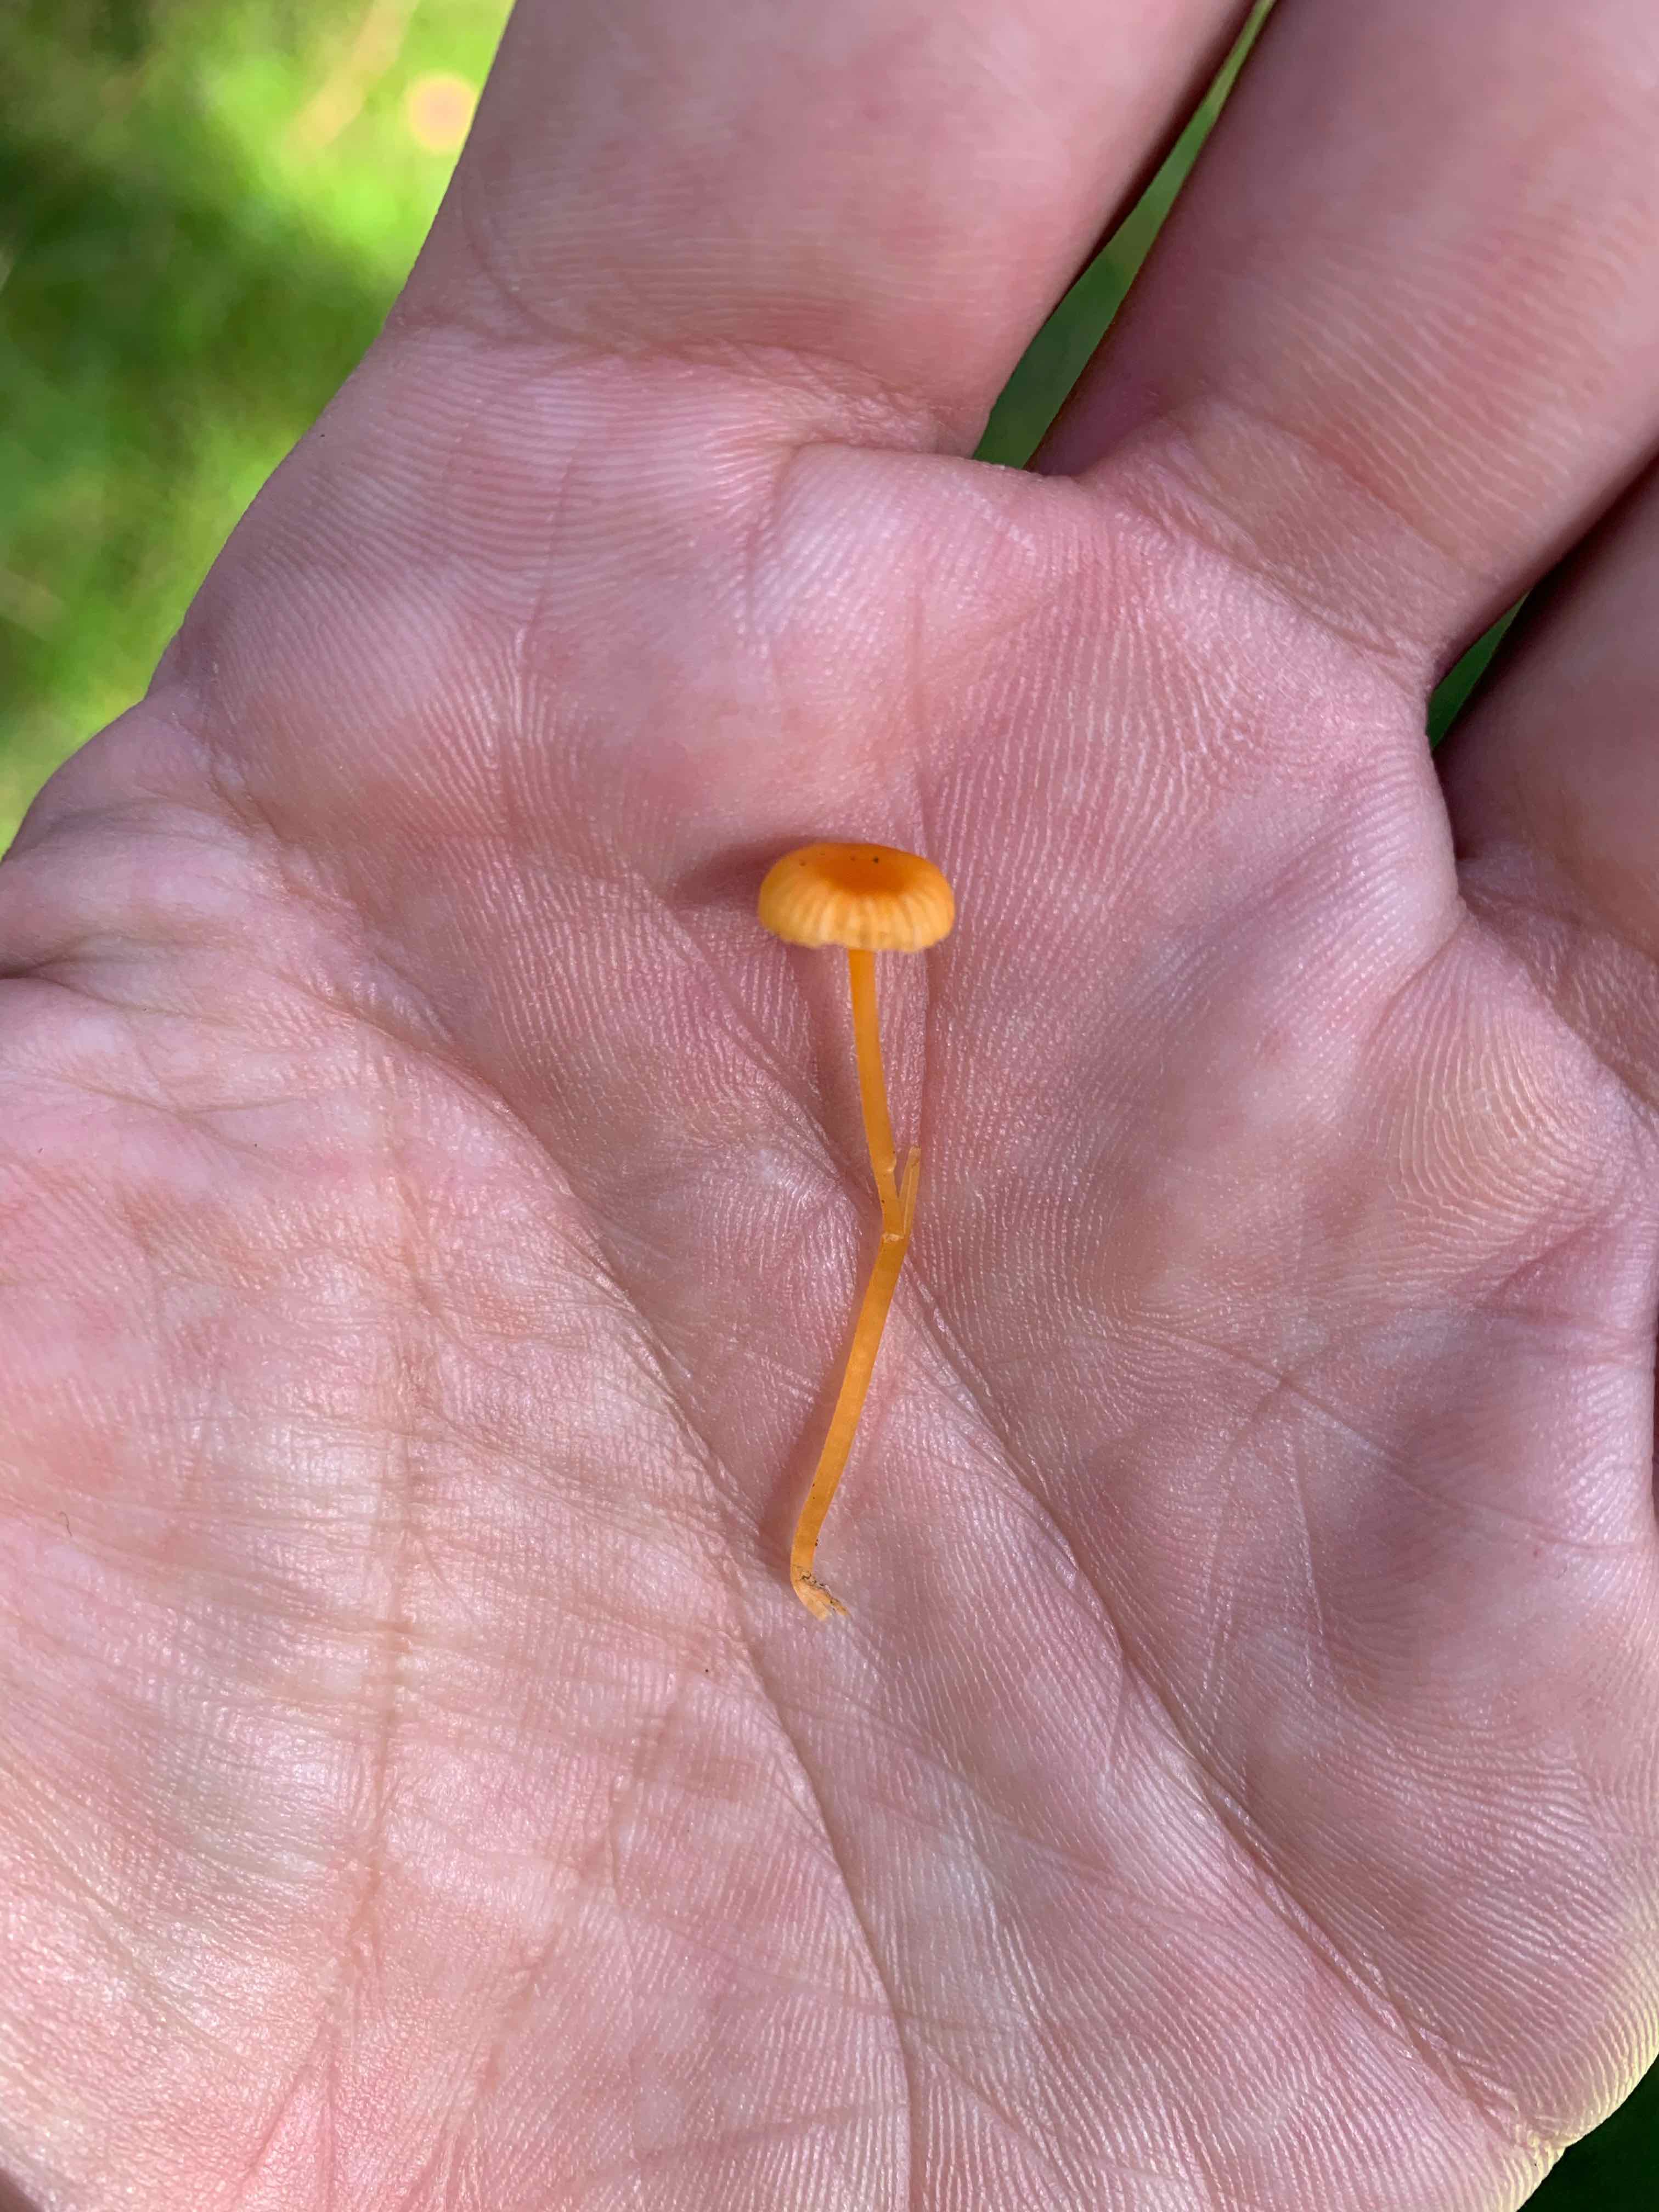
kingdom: Fungi
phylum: Basidiomycota
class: Agaricomycetes
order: Hymenochaetales
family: Rickenellaceae
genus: Rickenella
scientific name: Rickenella fibula
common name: orange mosnavlehat
